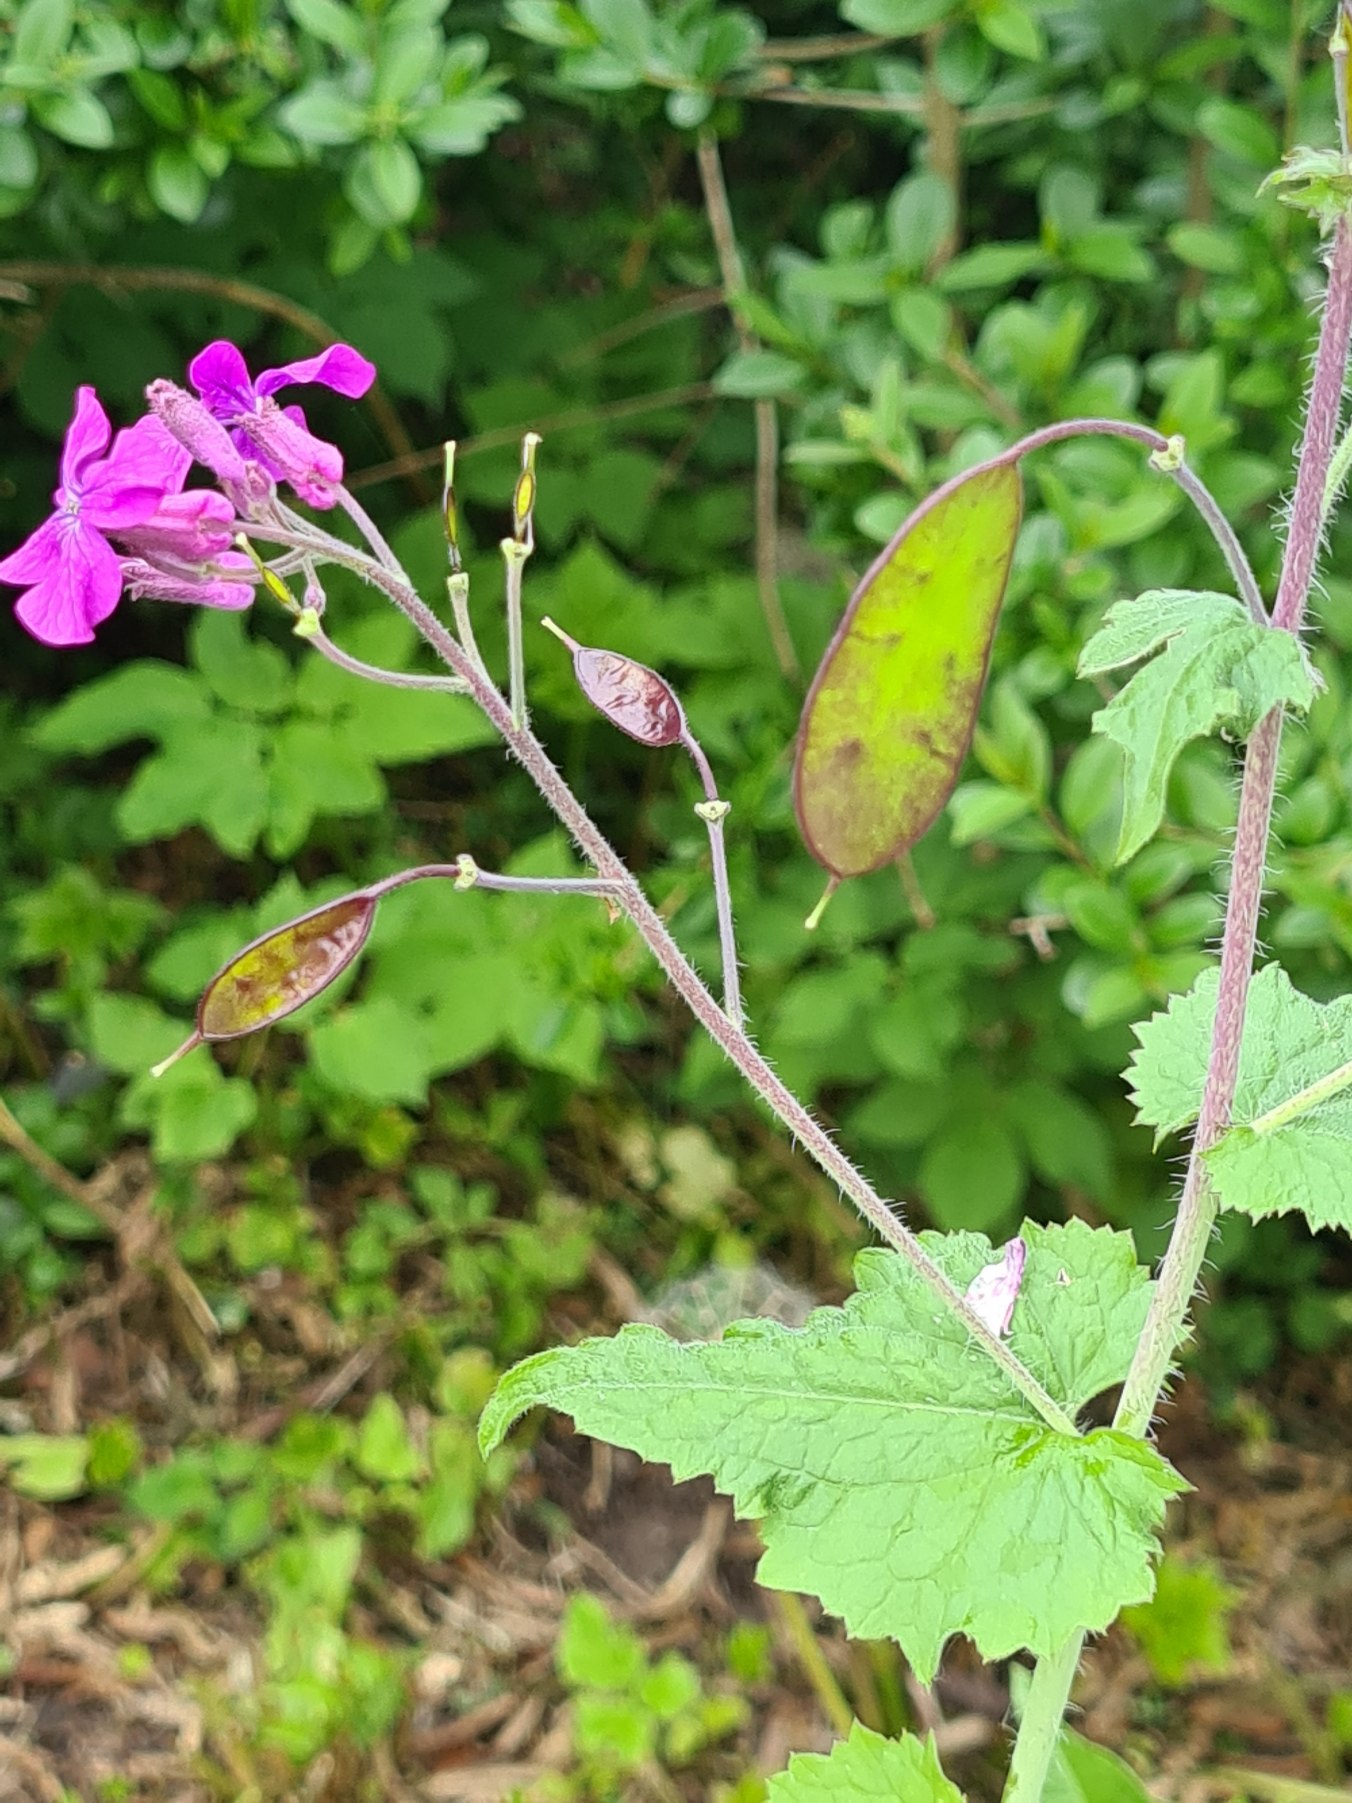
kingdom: Plantae
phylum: Tracheophyta
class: Magnoliopsida
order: Brassicales
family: Brassicaceae
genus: Lunaria
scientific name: Lunaria annua
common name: Judaspenge
